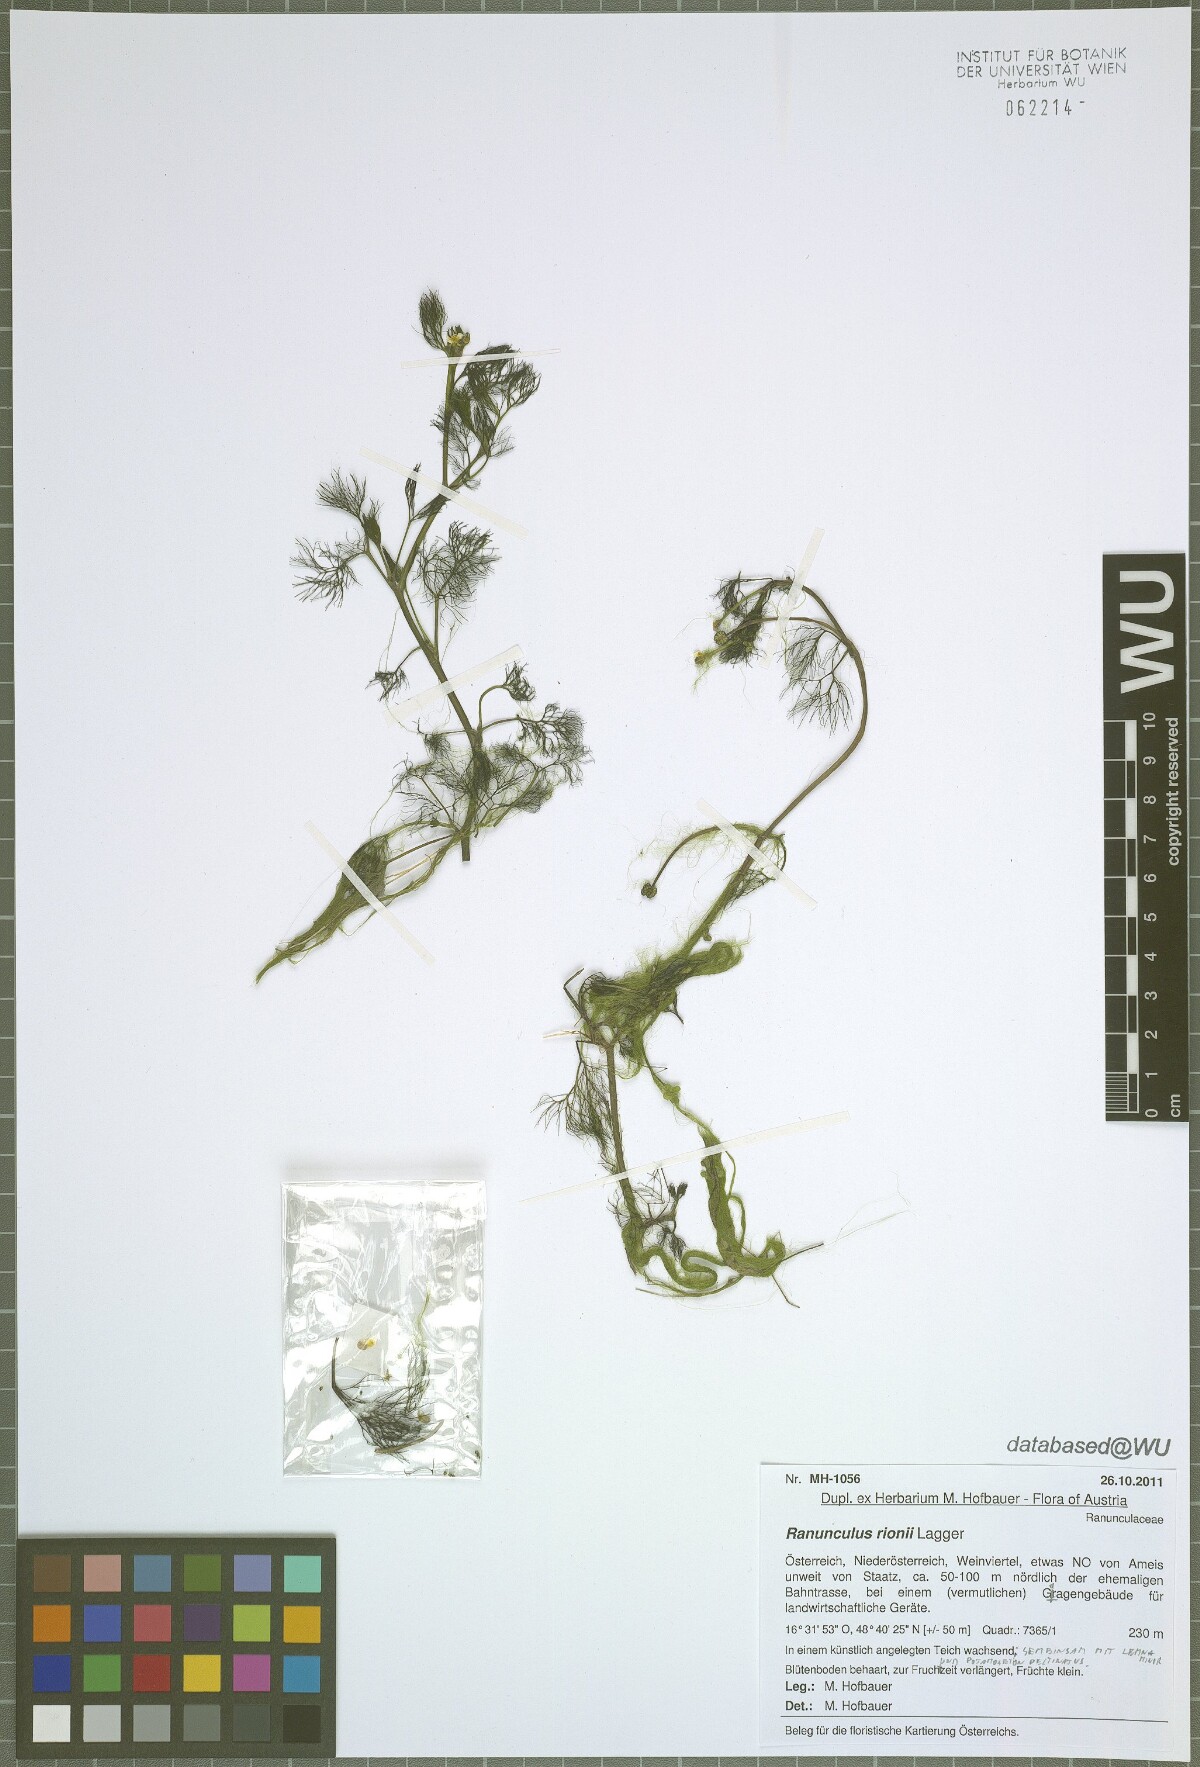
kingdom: Plantae
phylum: Tracheophyta
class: Magnoliopsida
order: Ranunculales
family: Ranunculaceae
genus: Ranunculus
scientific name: Ranunculus rionii
